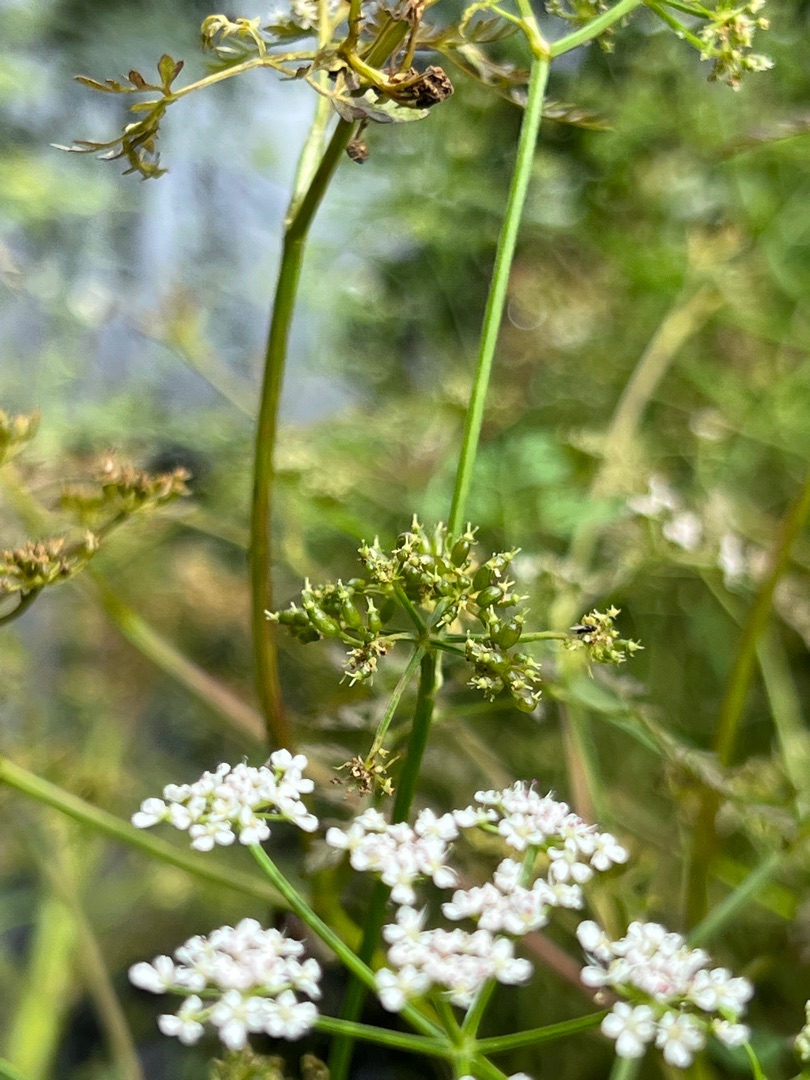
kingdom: Plantae
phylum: Tracheophyta
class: Magnoliopsida
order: Apiales
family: Apiaceae
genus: Oenanthe
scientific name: Oenanthe aquatica
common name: Billebo-klaseskærm
